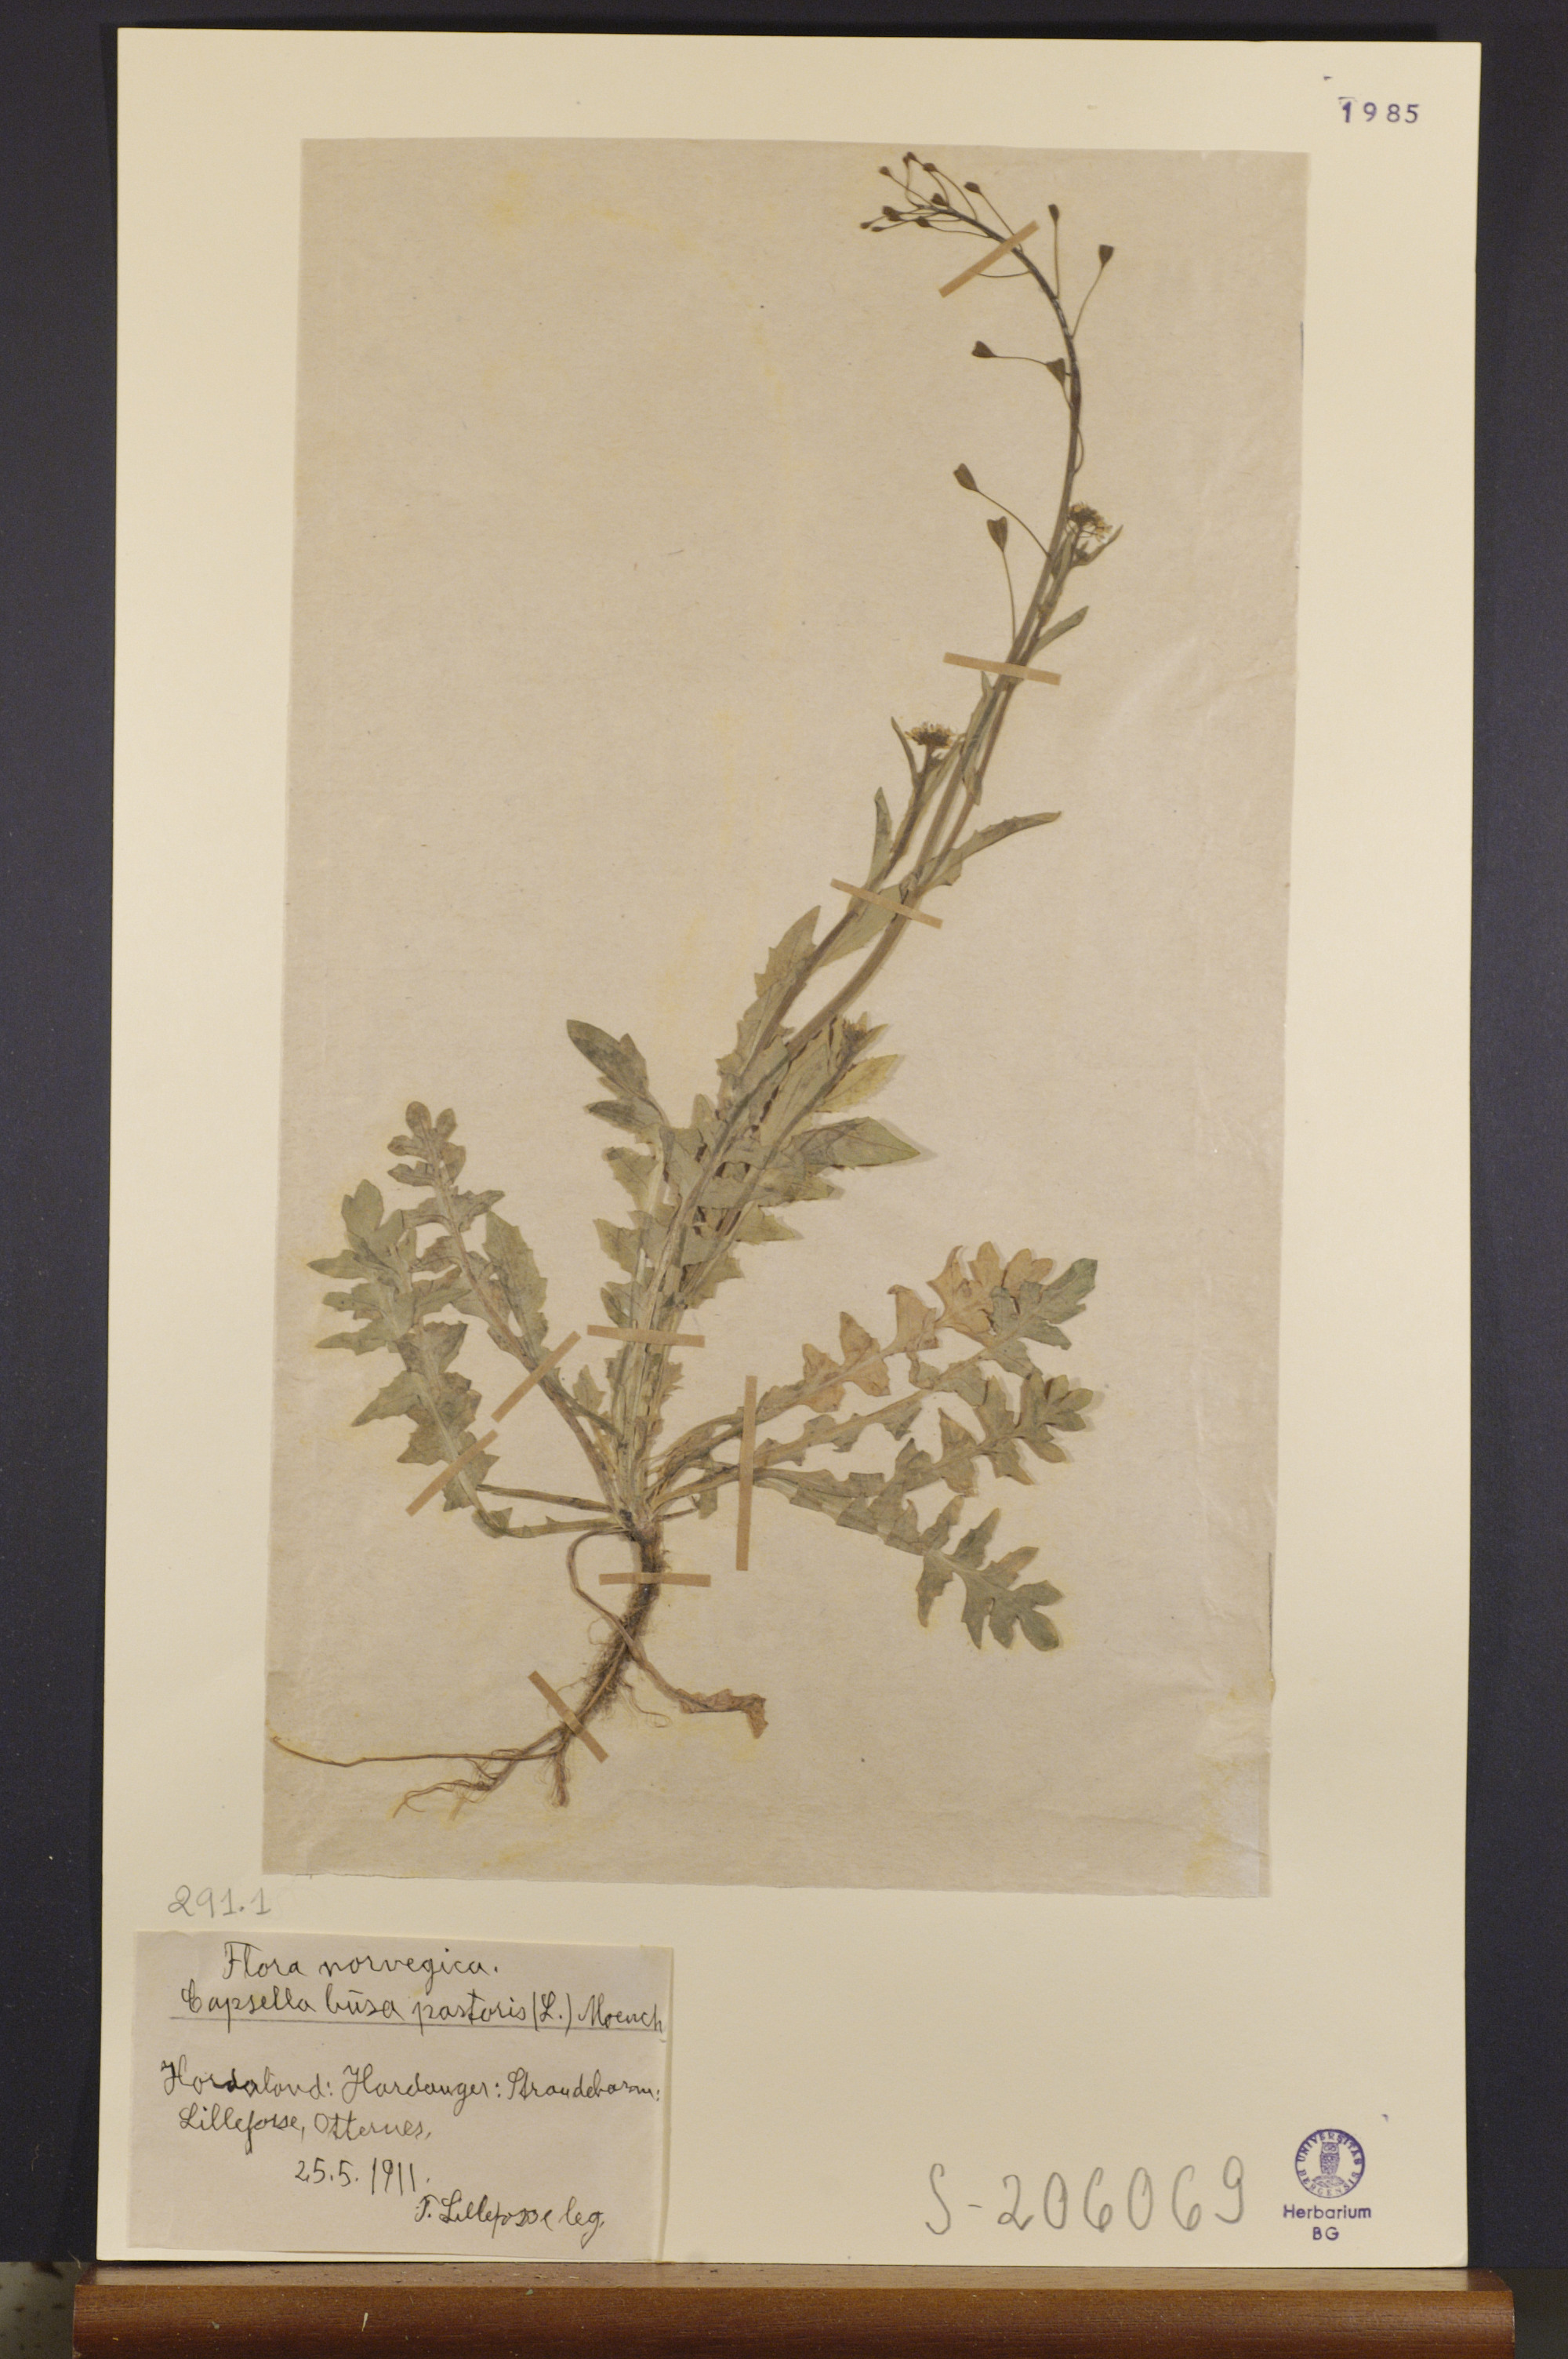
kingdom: Plantae
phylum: Tracheophyta
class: Magnoliopsida
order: Brassicales
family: Brassicaceae
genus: Capsella
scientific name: Capsella bursa-pastoris
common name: Shepherd's purse
